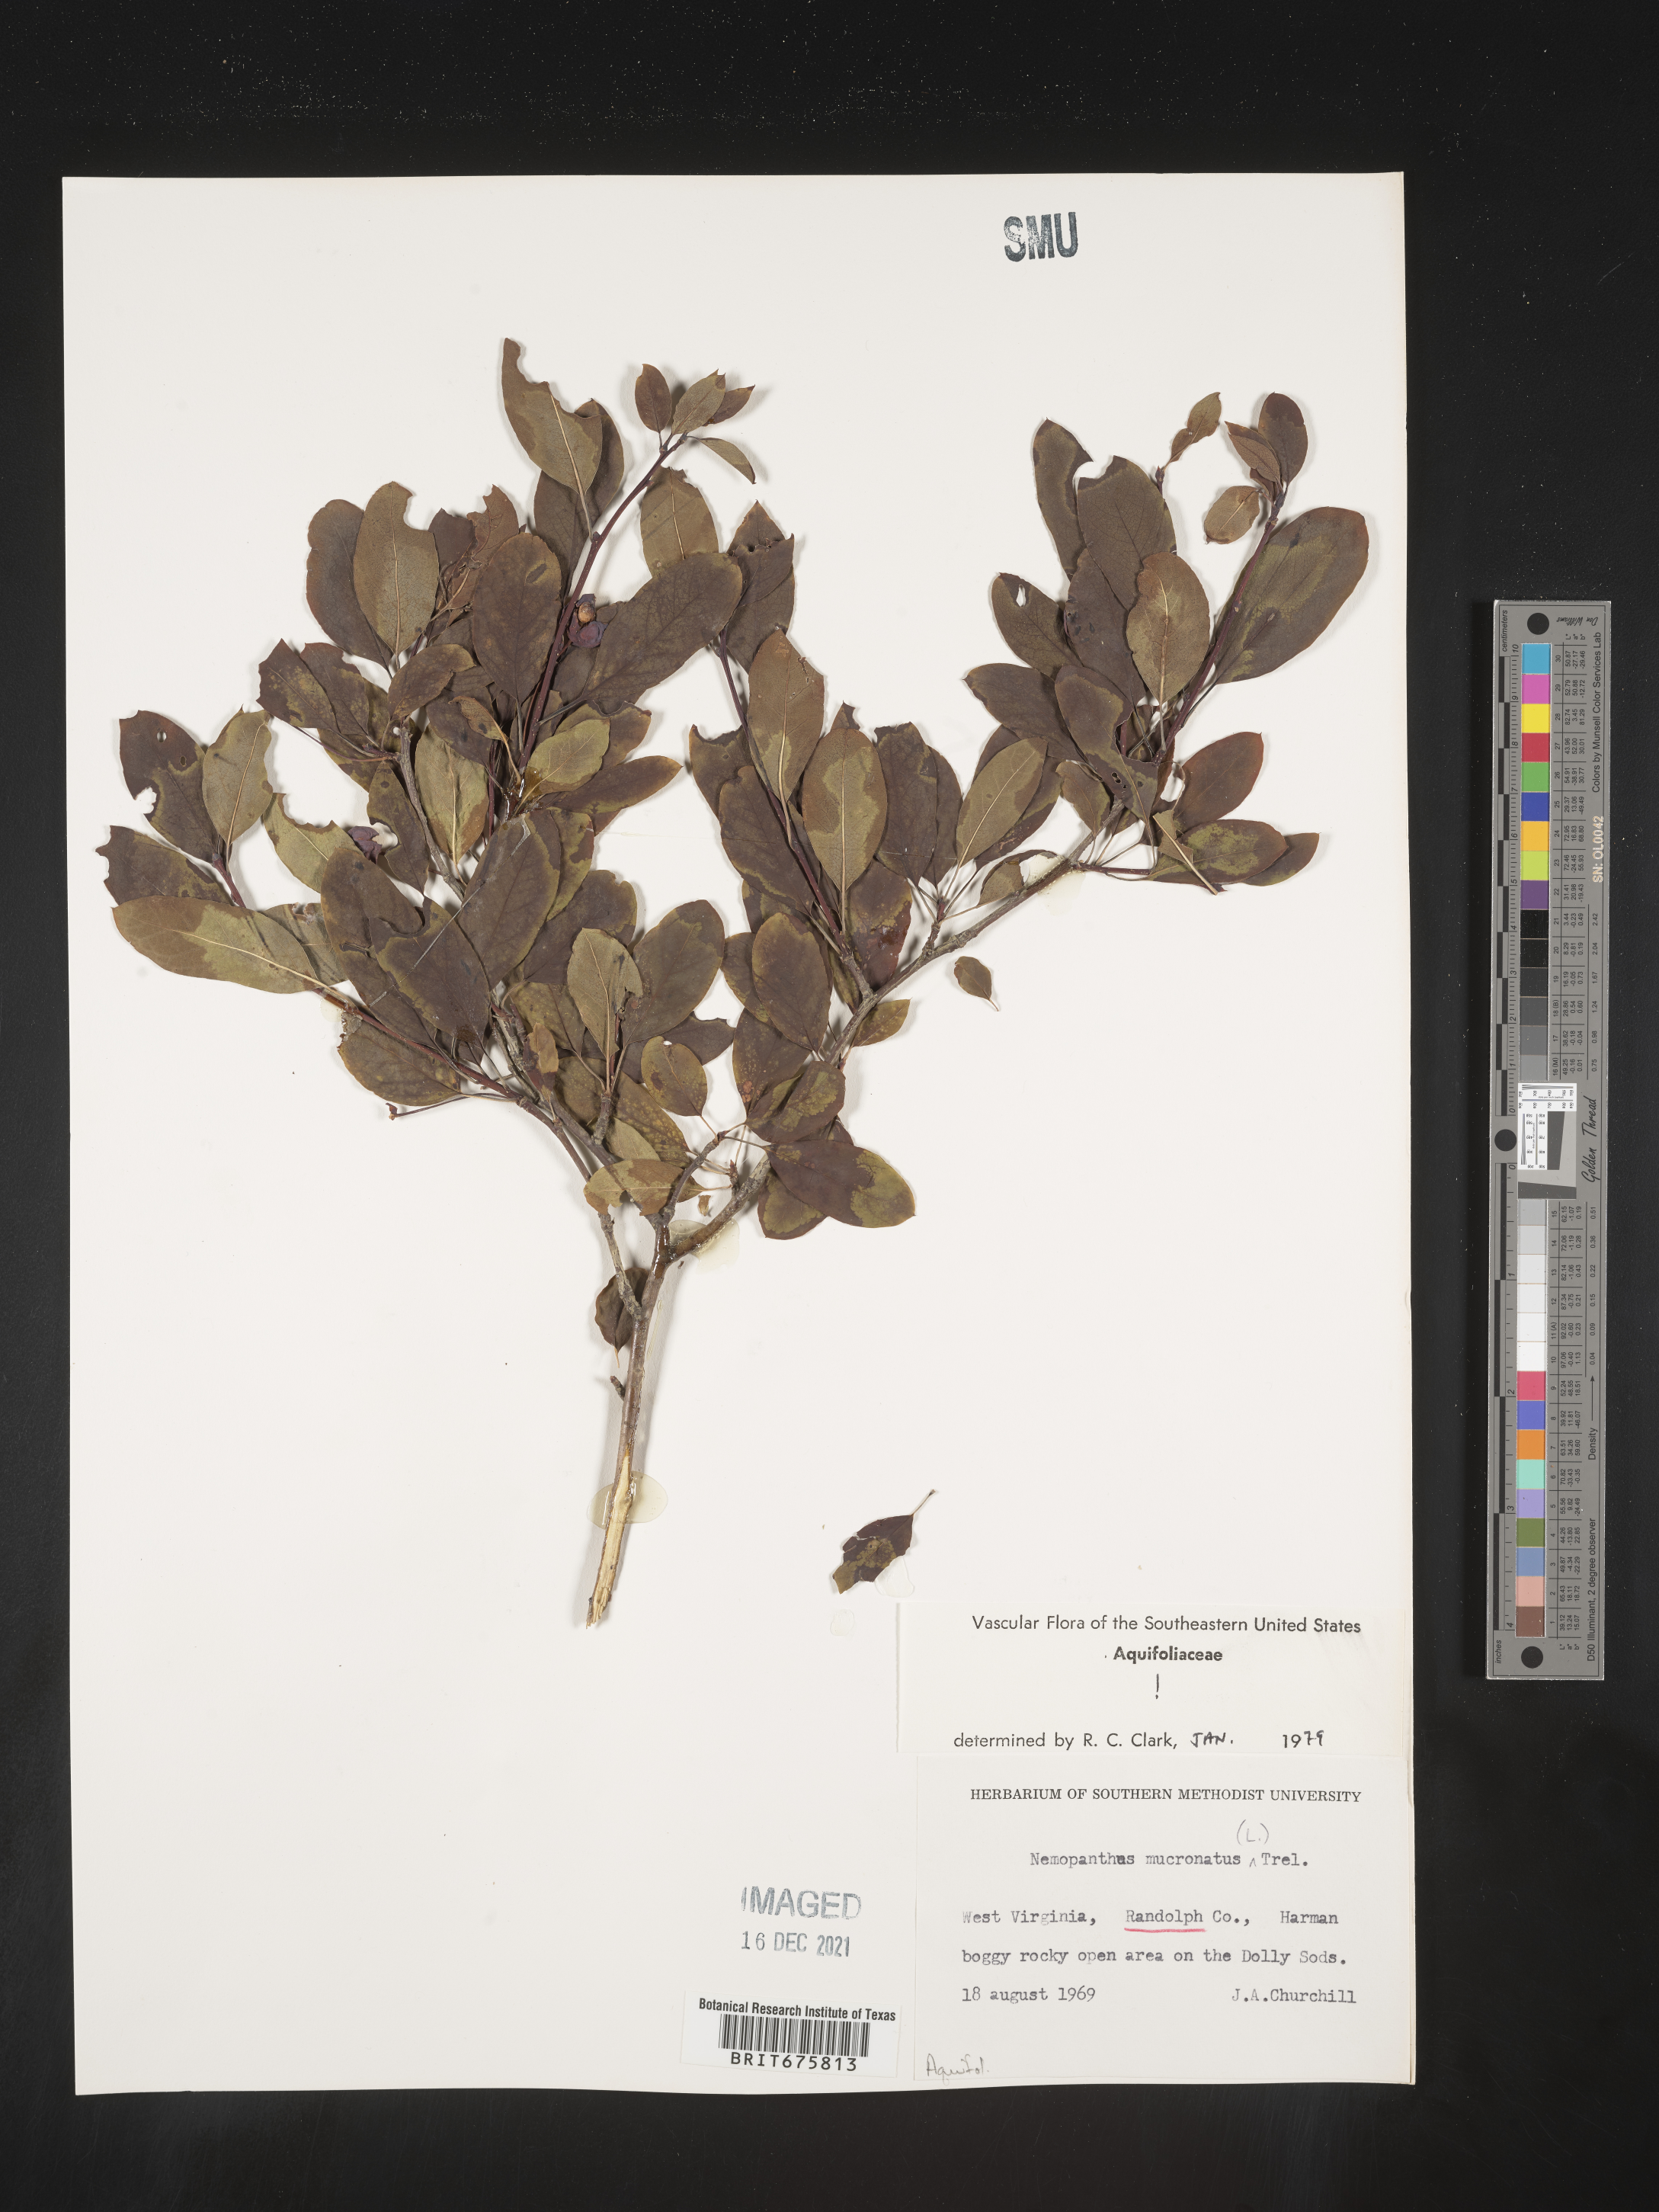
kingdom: Plantae
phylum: Tracheophyta
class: Magnoliopsida
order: Aquifoliales
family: Aquifoliaceae
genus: Ilex
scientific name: Ilex mucronata
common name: Catberry
